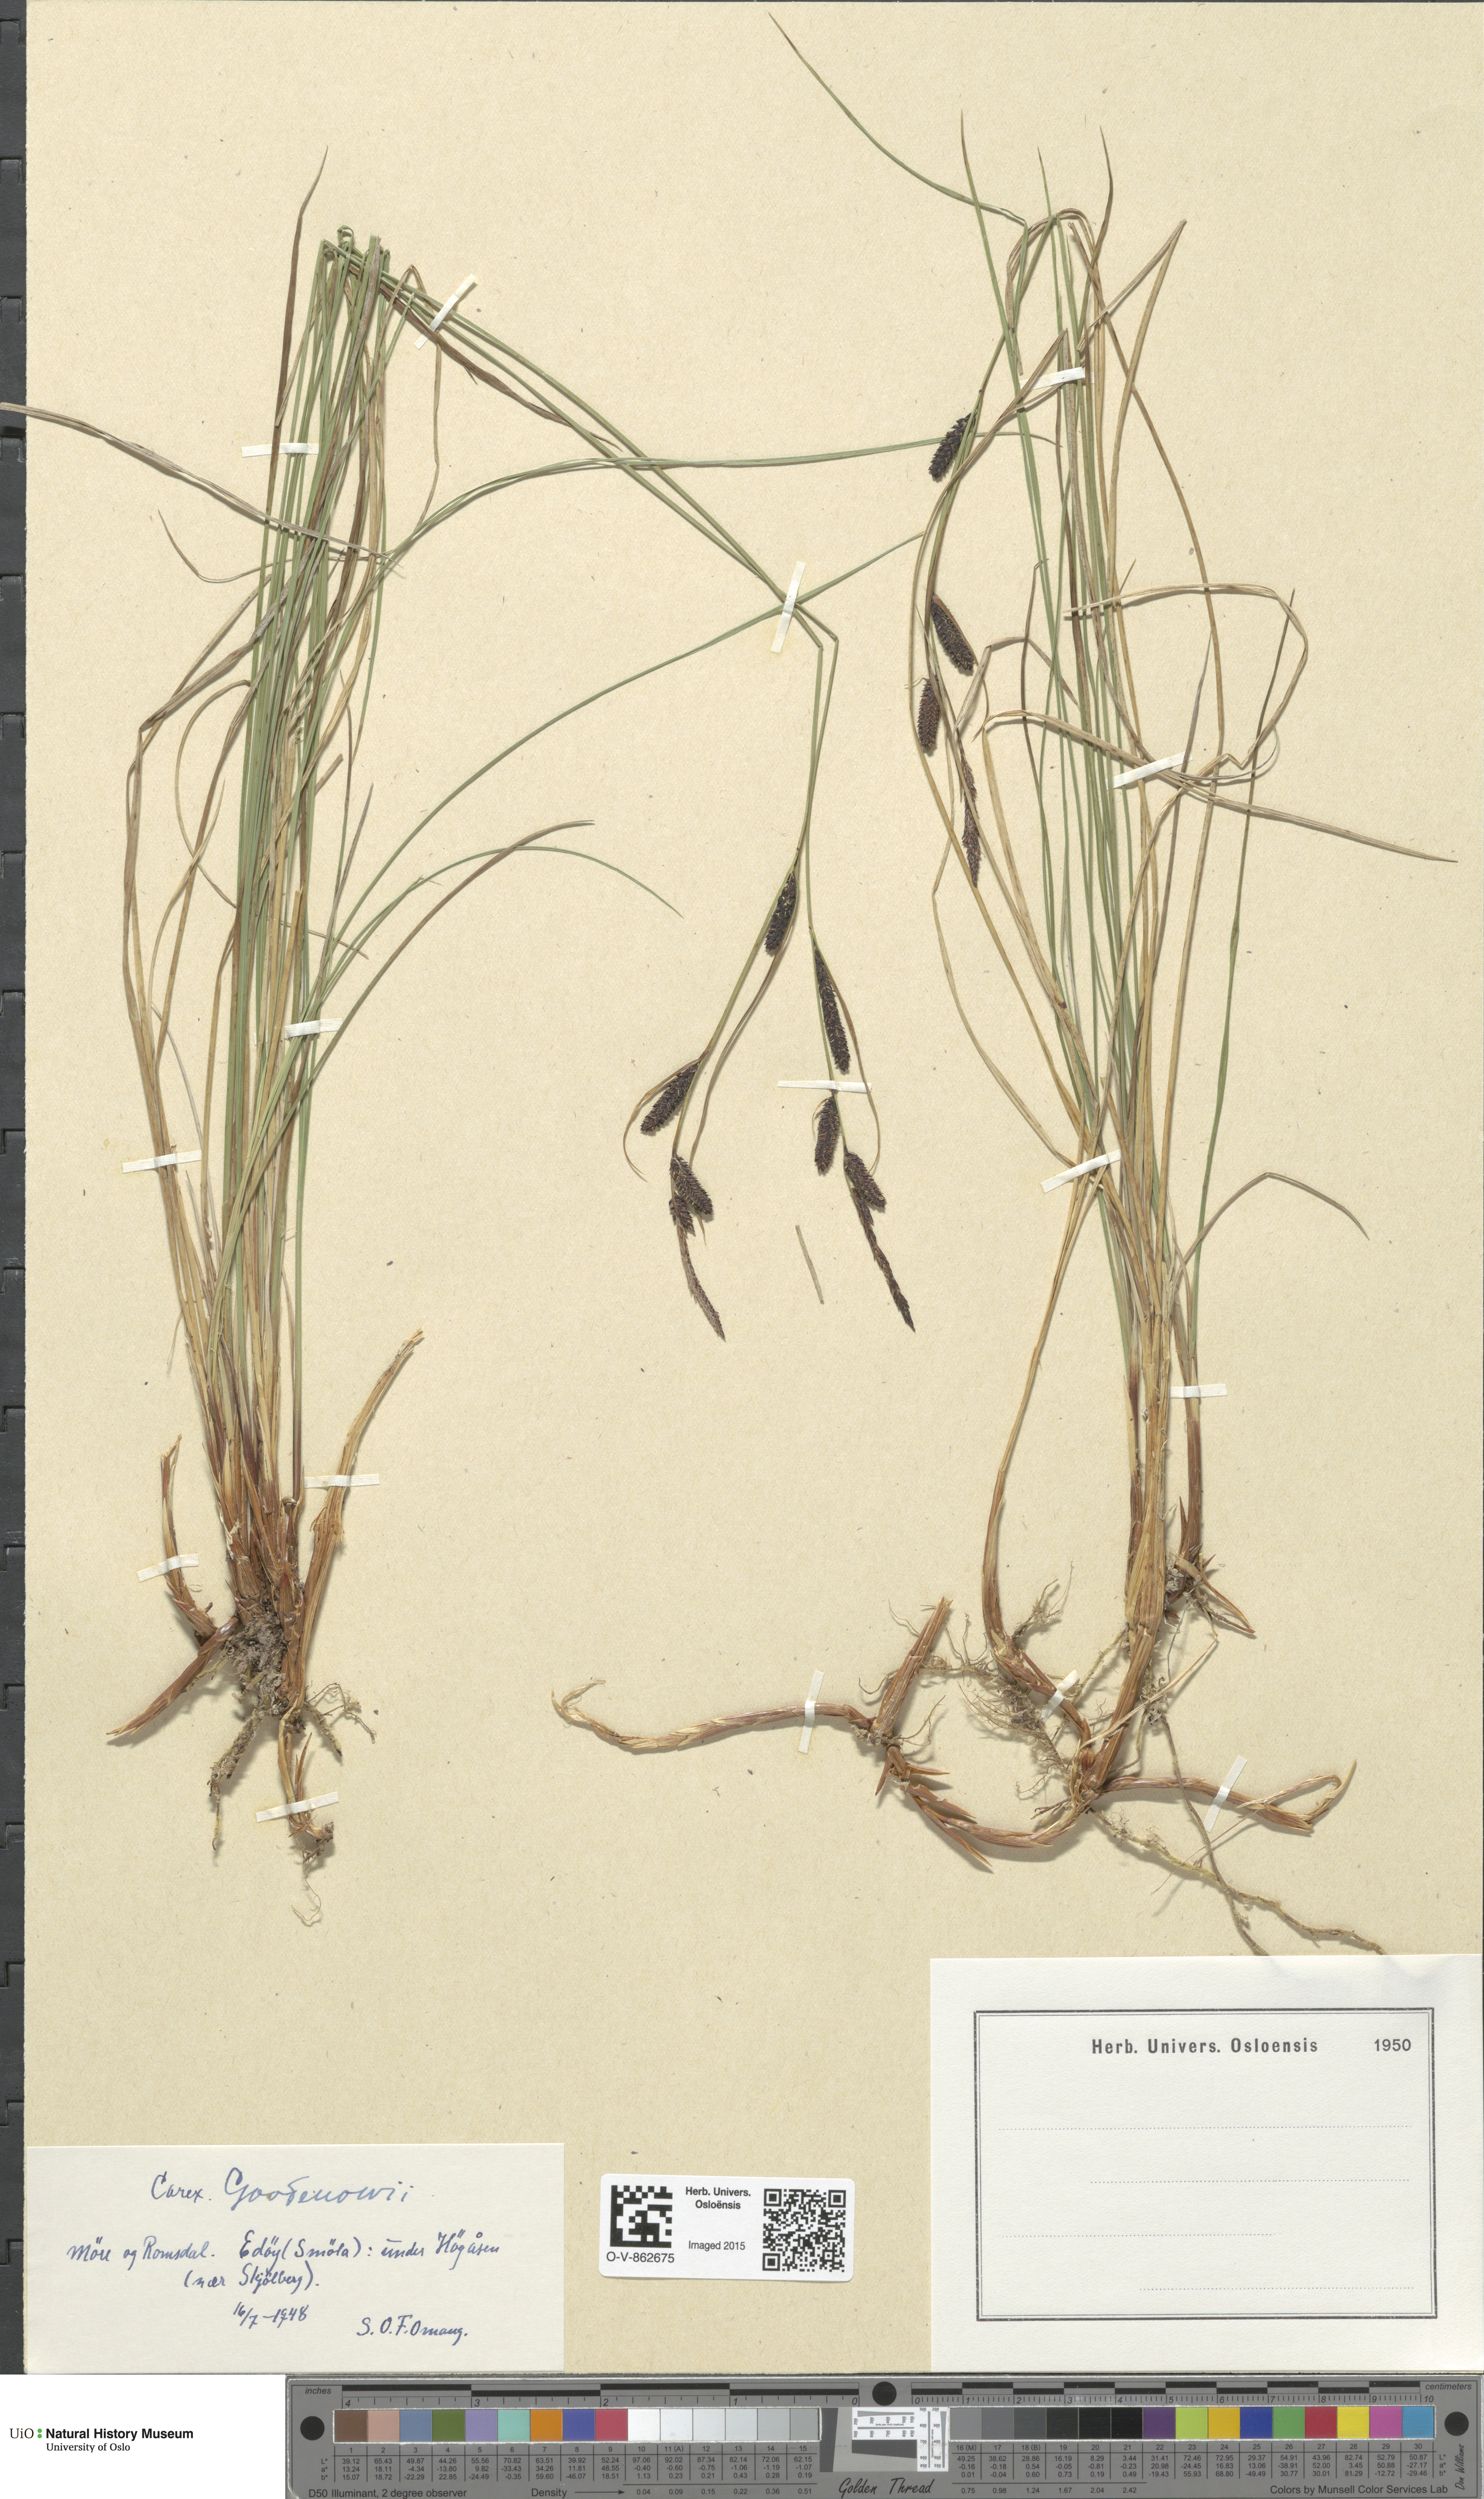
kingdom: Plantae
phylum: Tracheophyta
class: Liliopsida
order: Poales
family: Cyperaceae
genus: Carex
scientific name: Carex nigra
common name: Common sedge
